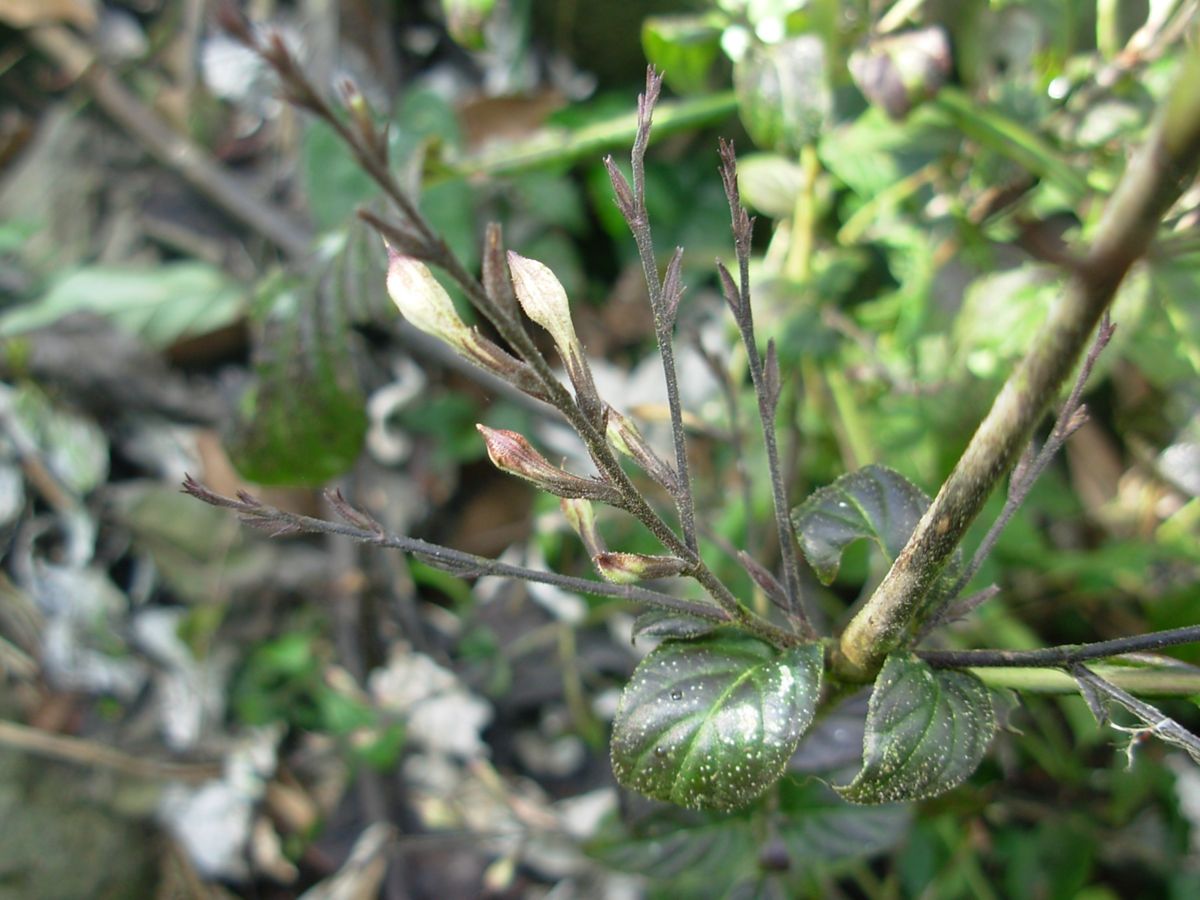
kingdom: Plantae
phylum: Tracheophyta
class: Magnoliopsida
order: Lamiales
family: Acanthaceae
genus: Pseuderanthemum
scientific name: Pseuderanthemum
